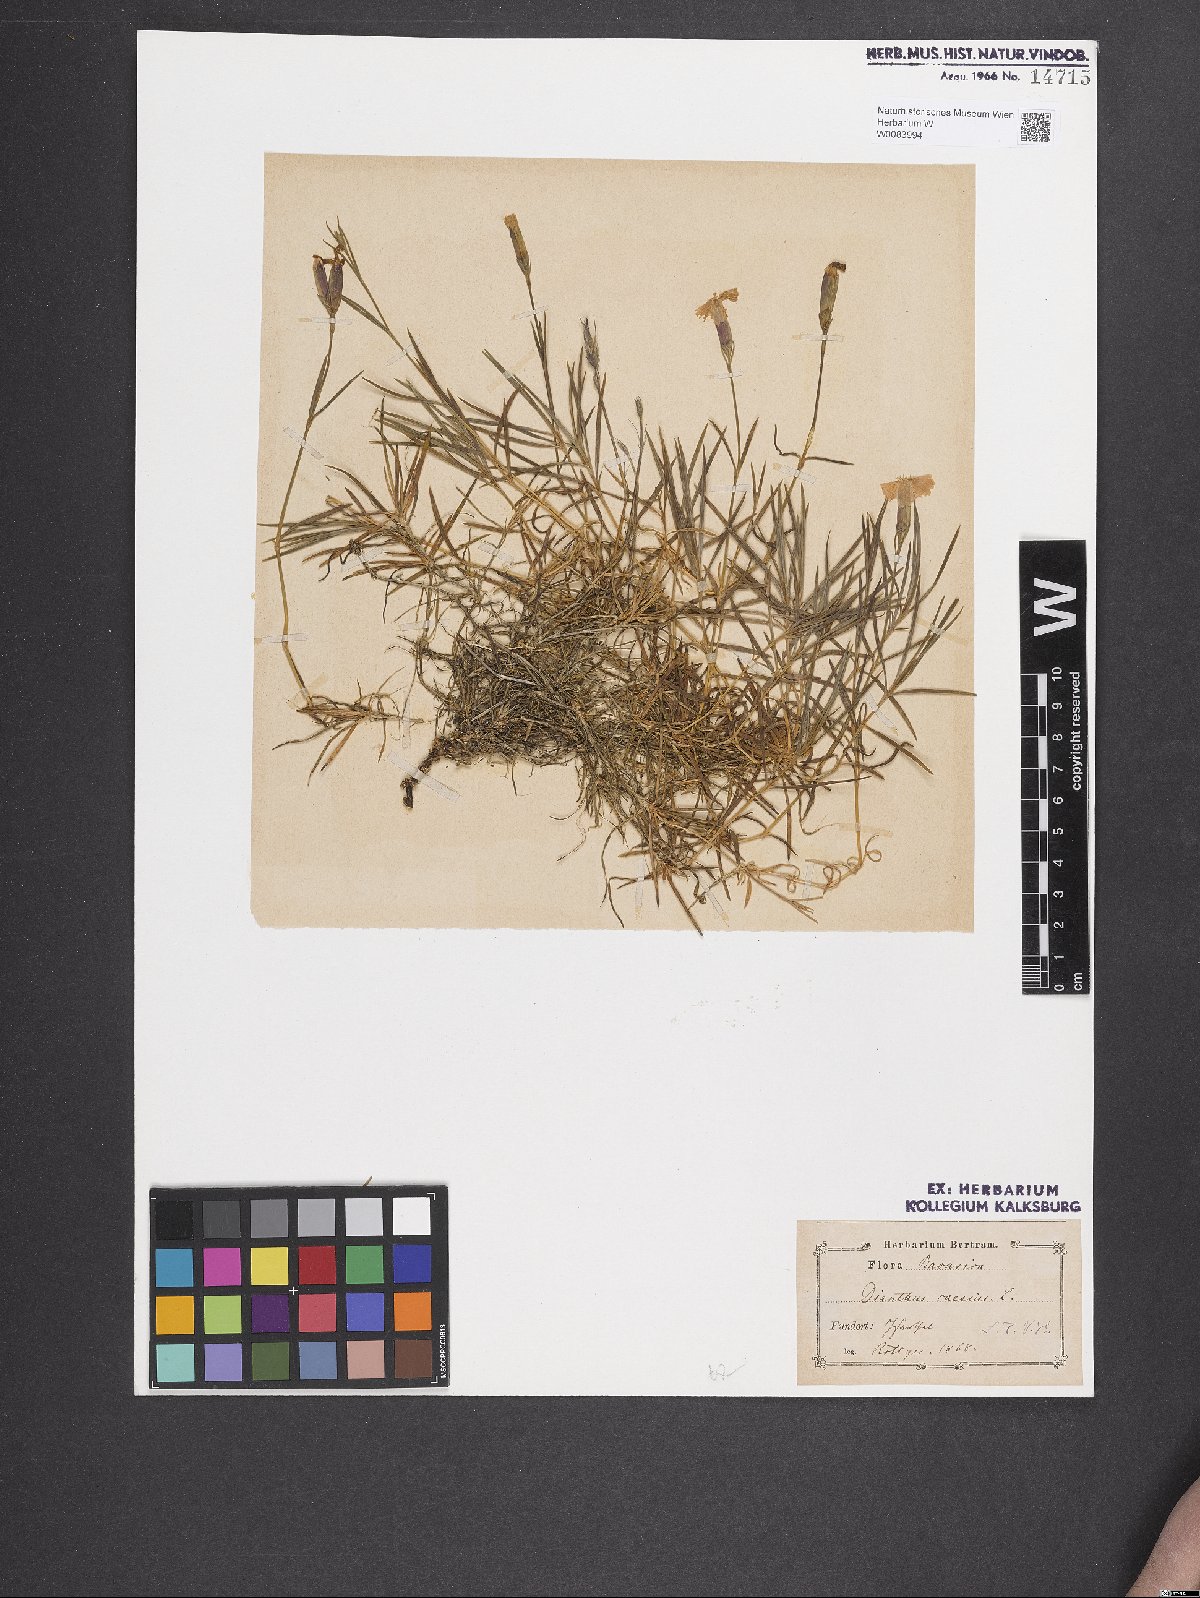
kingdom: Plantae
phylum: Tracheophyta
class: Magnoliopsida
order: Caryophyllales
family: Caryophyllaceae
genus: Dianthus
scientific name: Dianthus gratianopolitanus
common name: Cheddar pink
